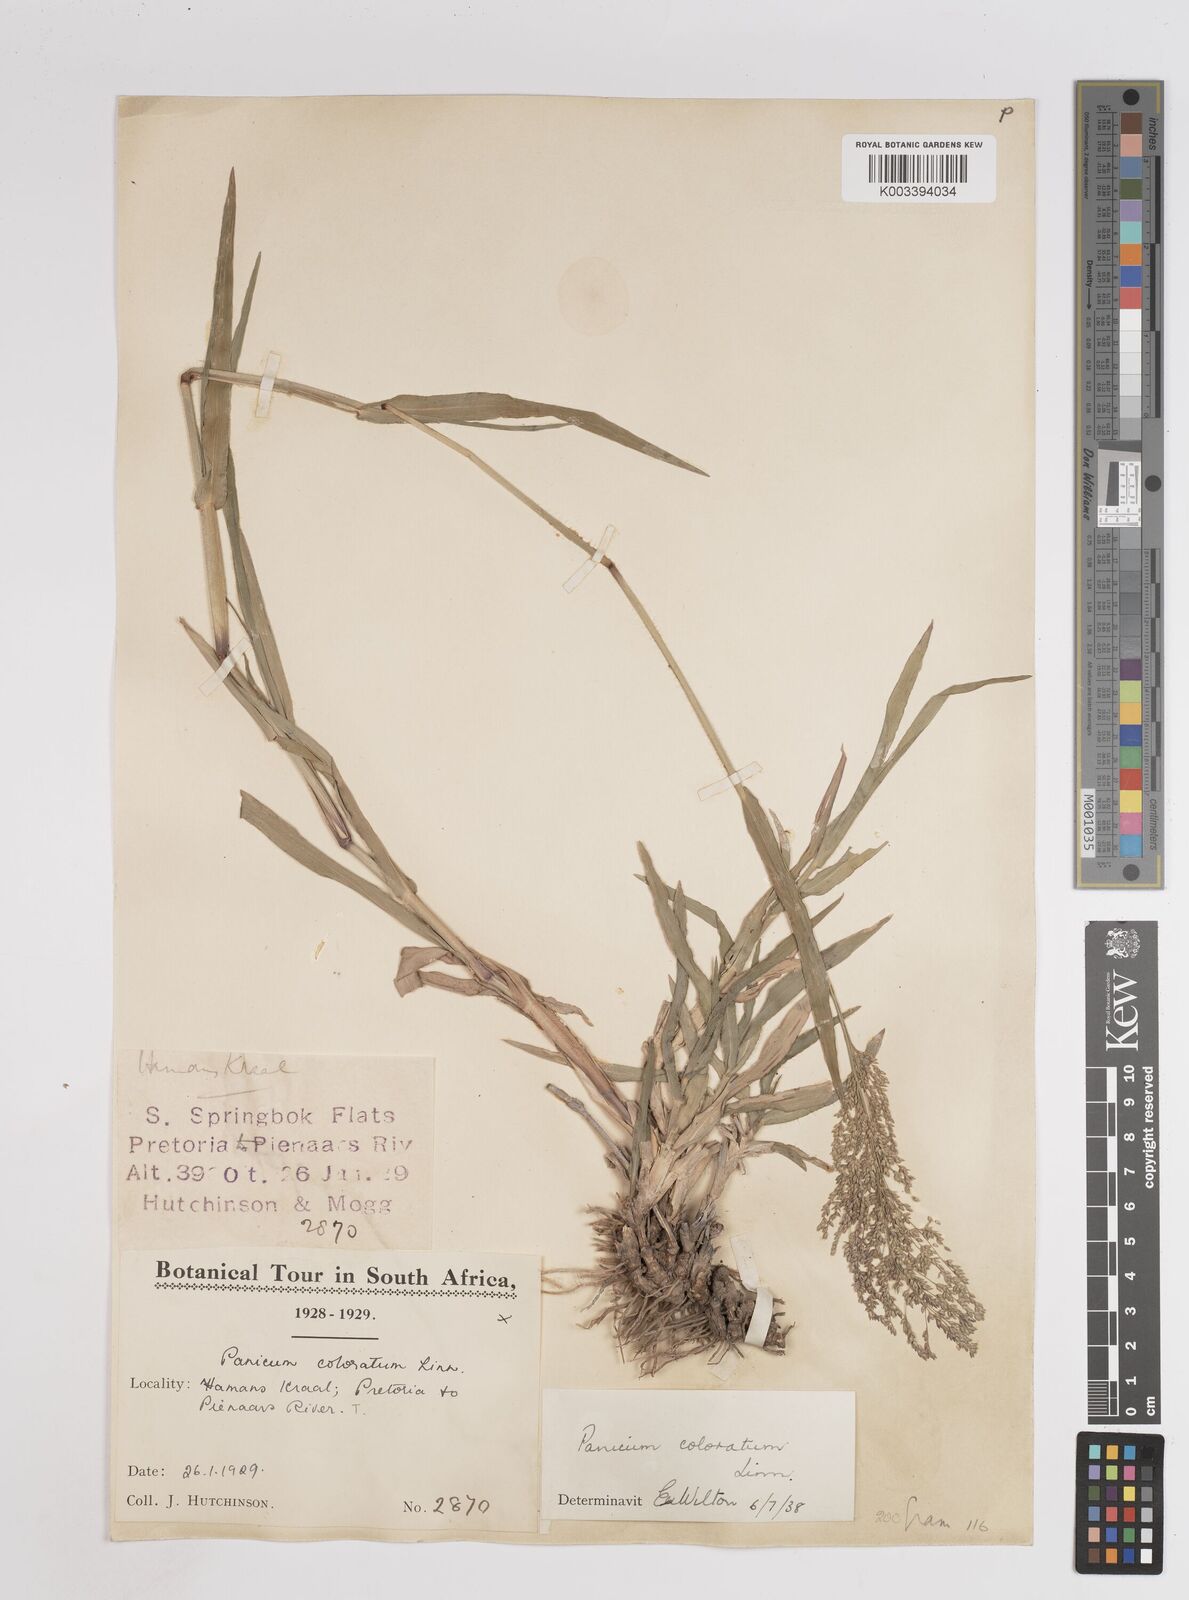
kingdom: Plantae
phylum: Tracheophyta
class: Liliopsida
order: Poales
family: Poaceae
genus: Panicum
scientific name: Panicum coloratum
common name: Kleingrass
